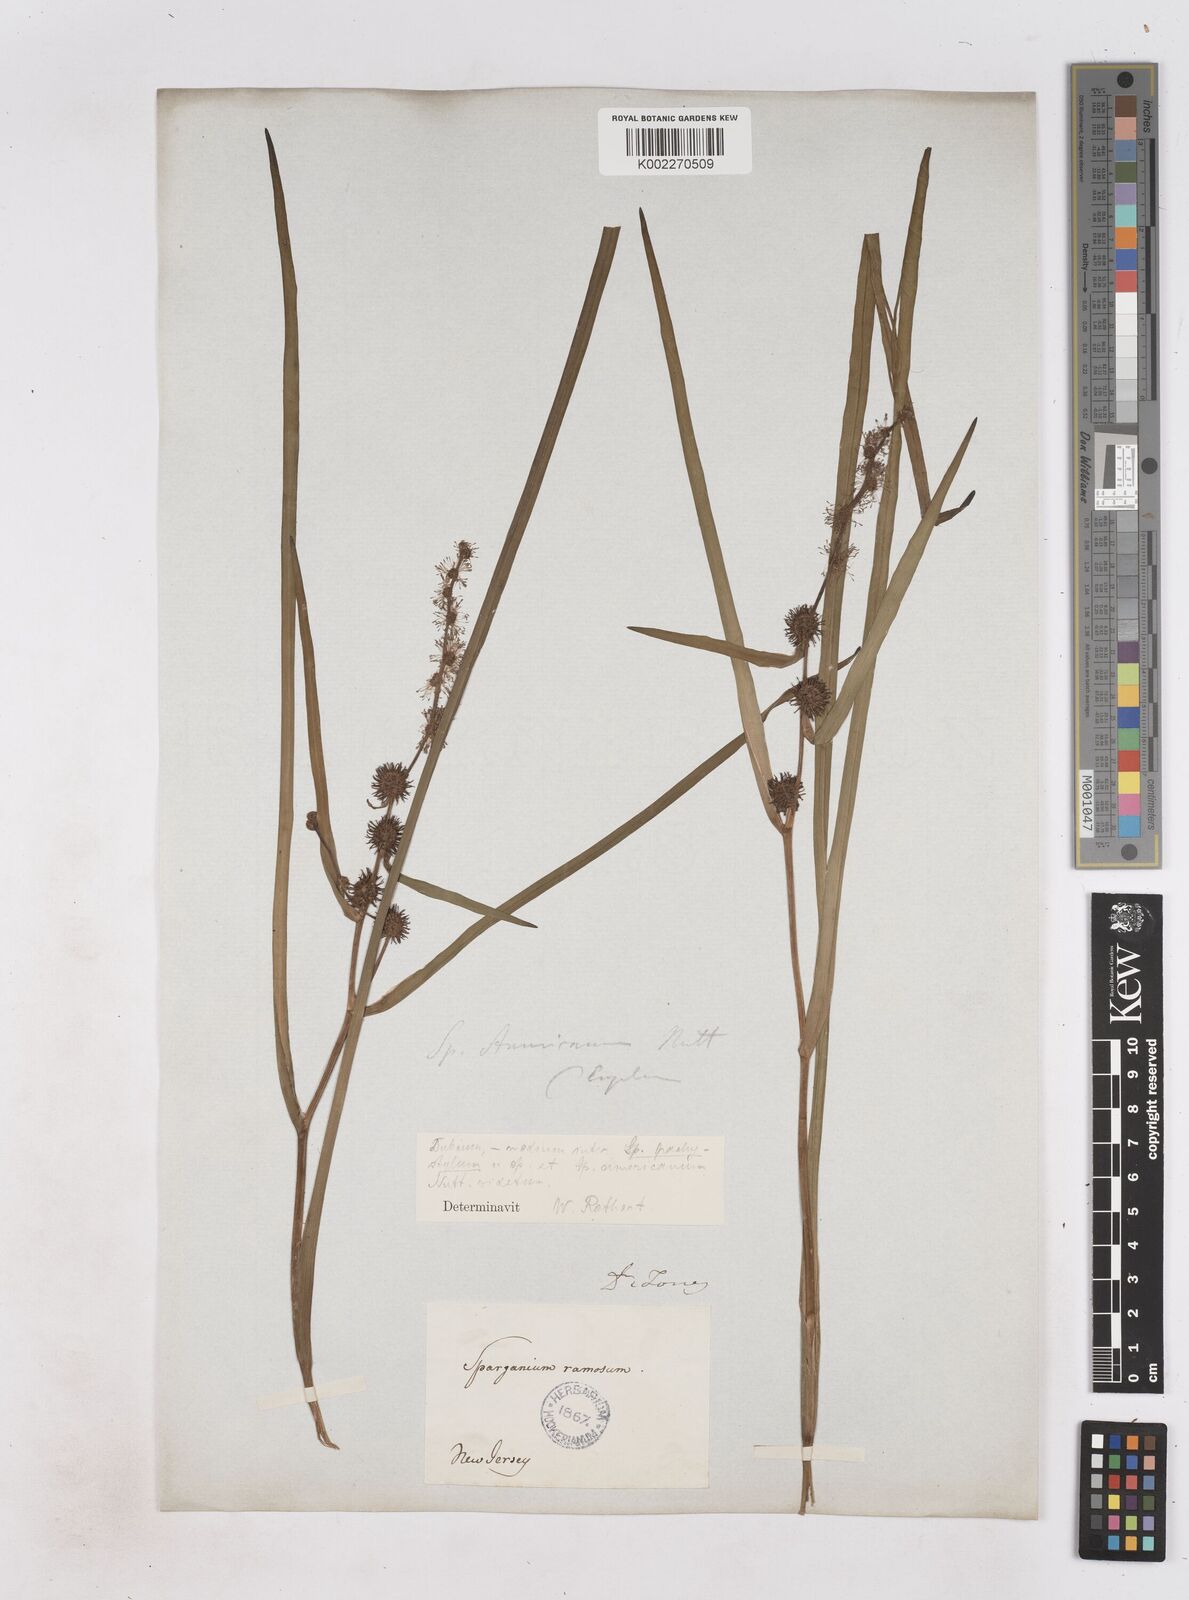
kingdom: Plantae
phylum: Tracheophyta
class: Liliopsida
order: Poales
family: Typhaceae
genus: Sparganium
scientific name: Sparganium americanum
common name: American burreed
